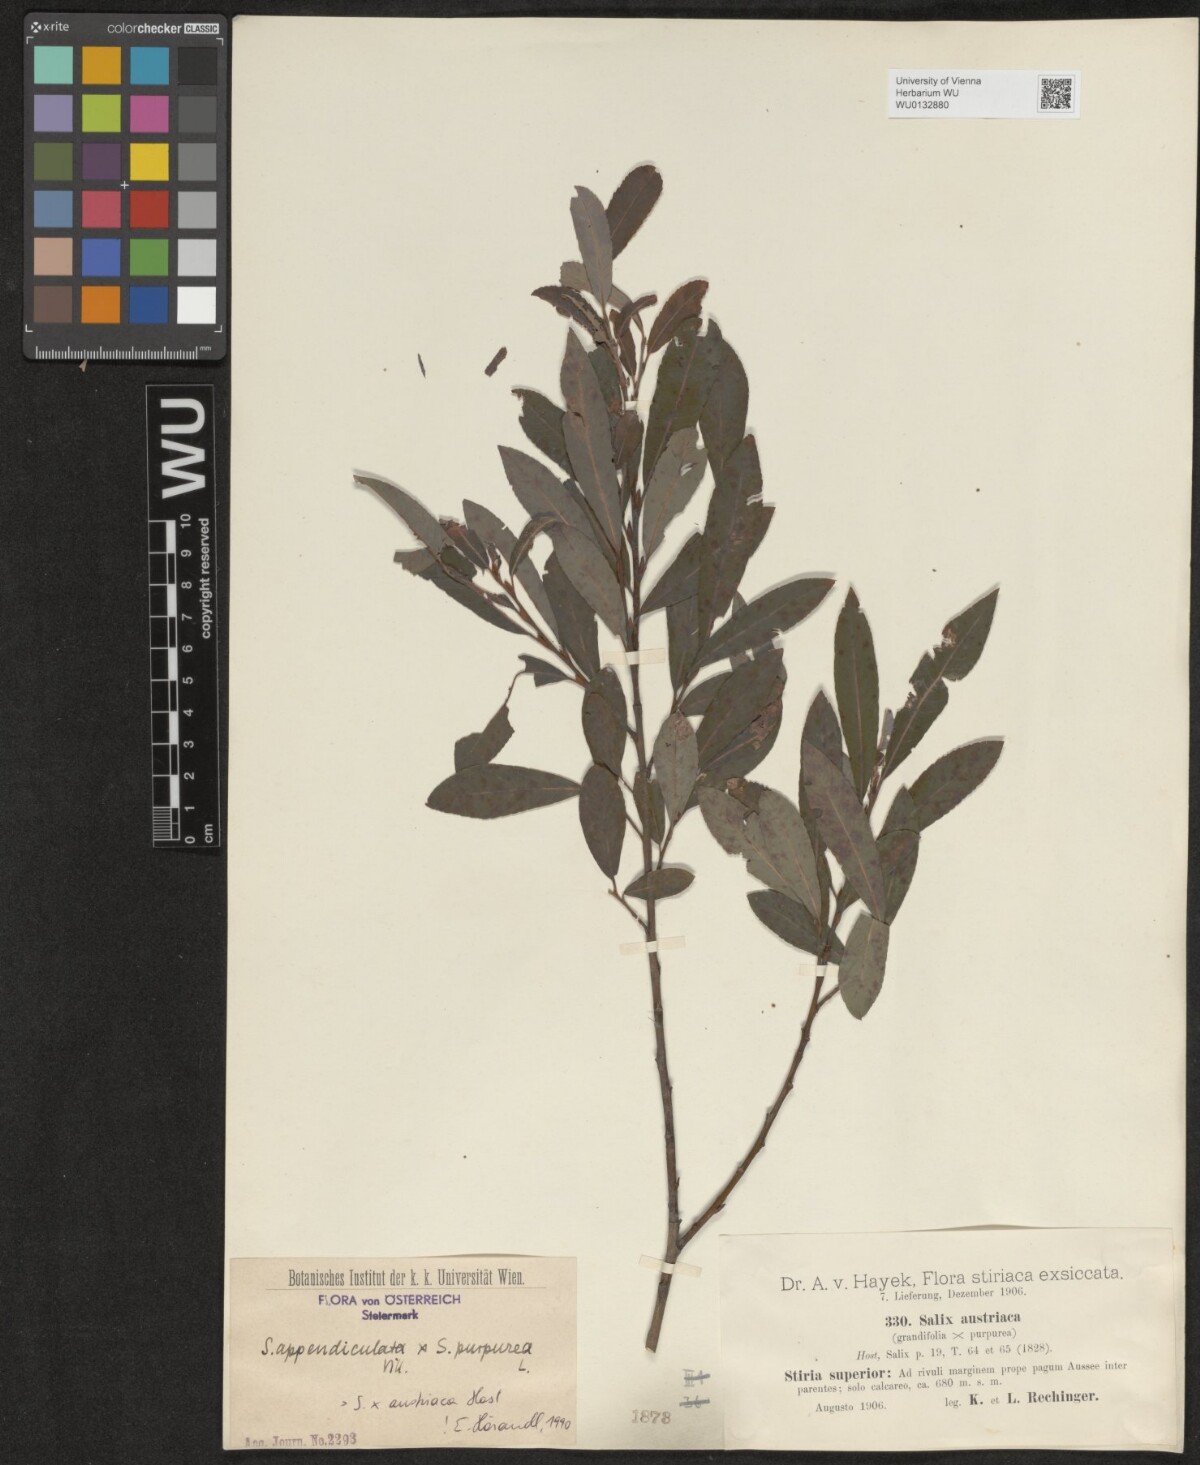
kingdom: Plantae
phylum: Tracheophyta
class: Magnoliopsida
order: Malpighiales
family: Salicaceae
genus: Salix
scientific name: Salix austriaca
